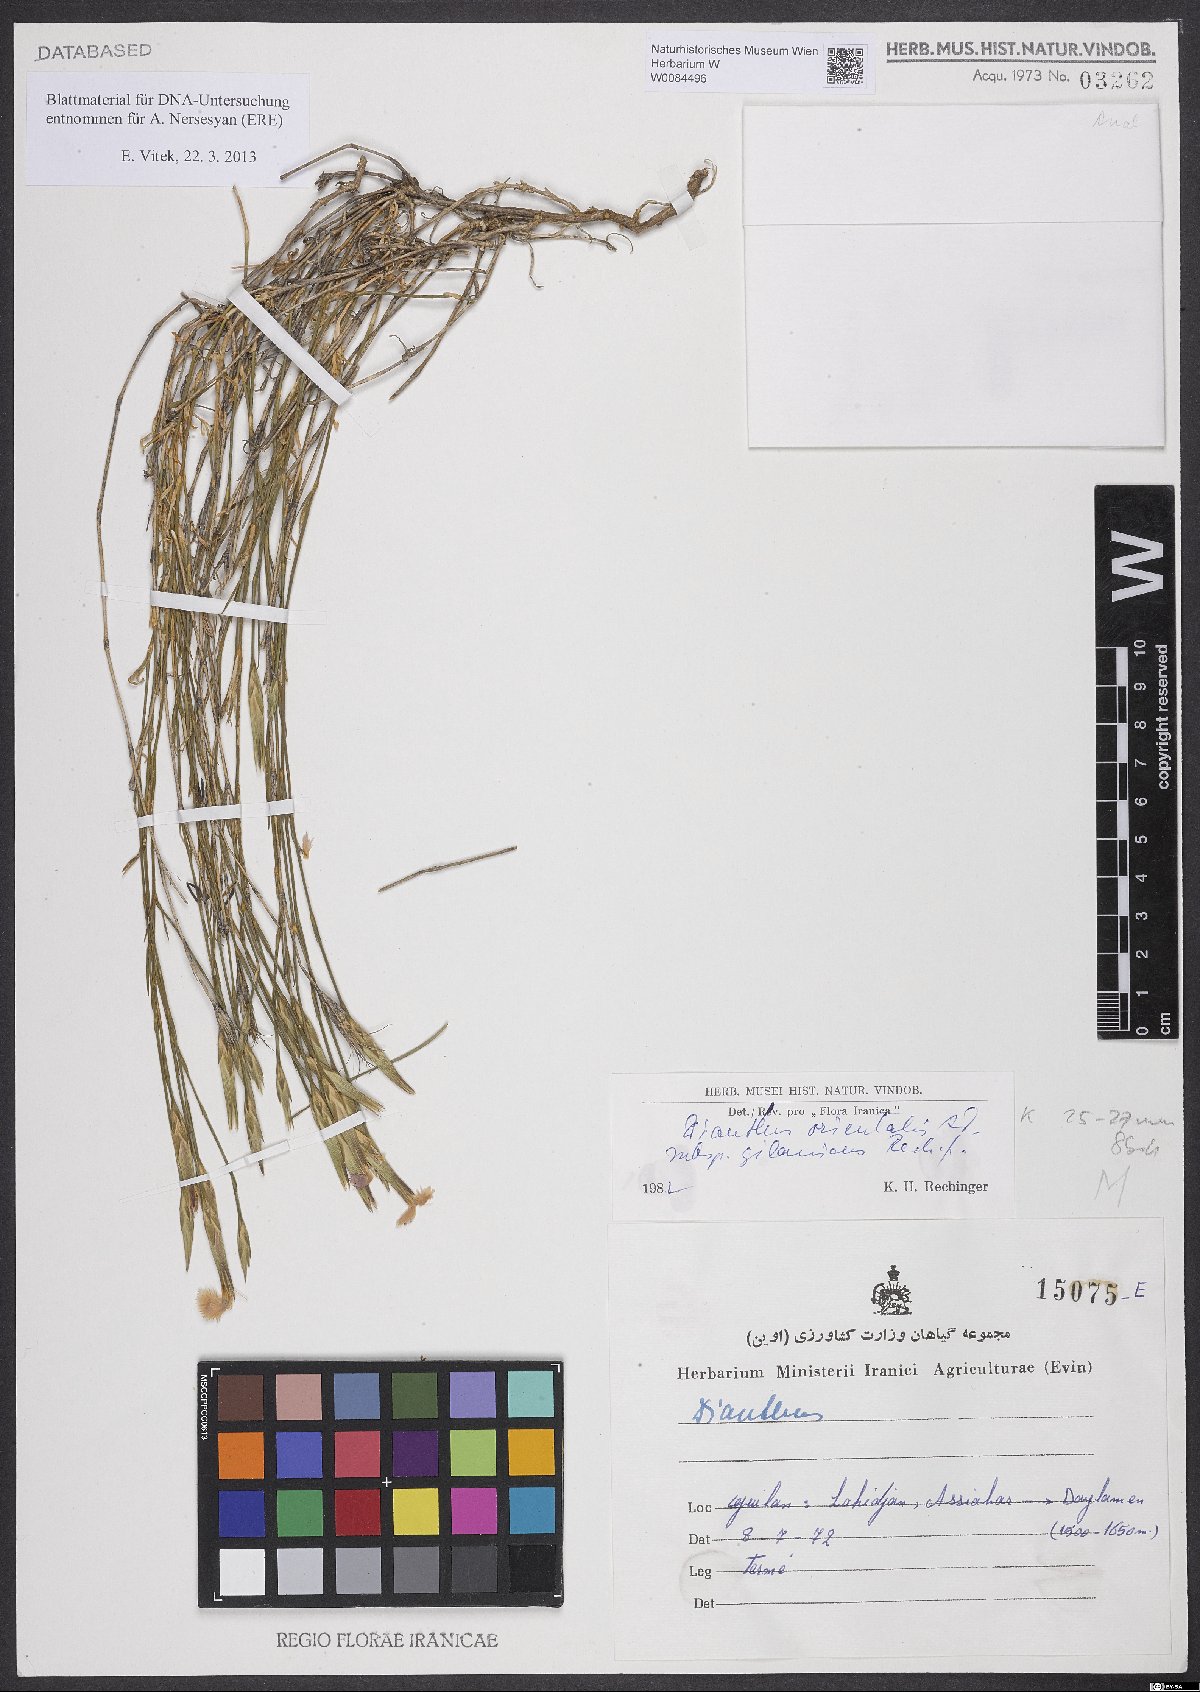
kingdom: Plantae
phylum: Tracheophyta
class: Magnoliopsida
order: Caryophyllales
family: Caryophyllaceae
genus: Dianthus
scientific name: Dianthus orientalis
